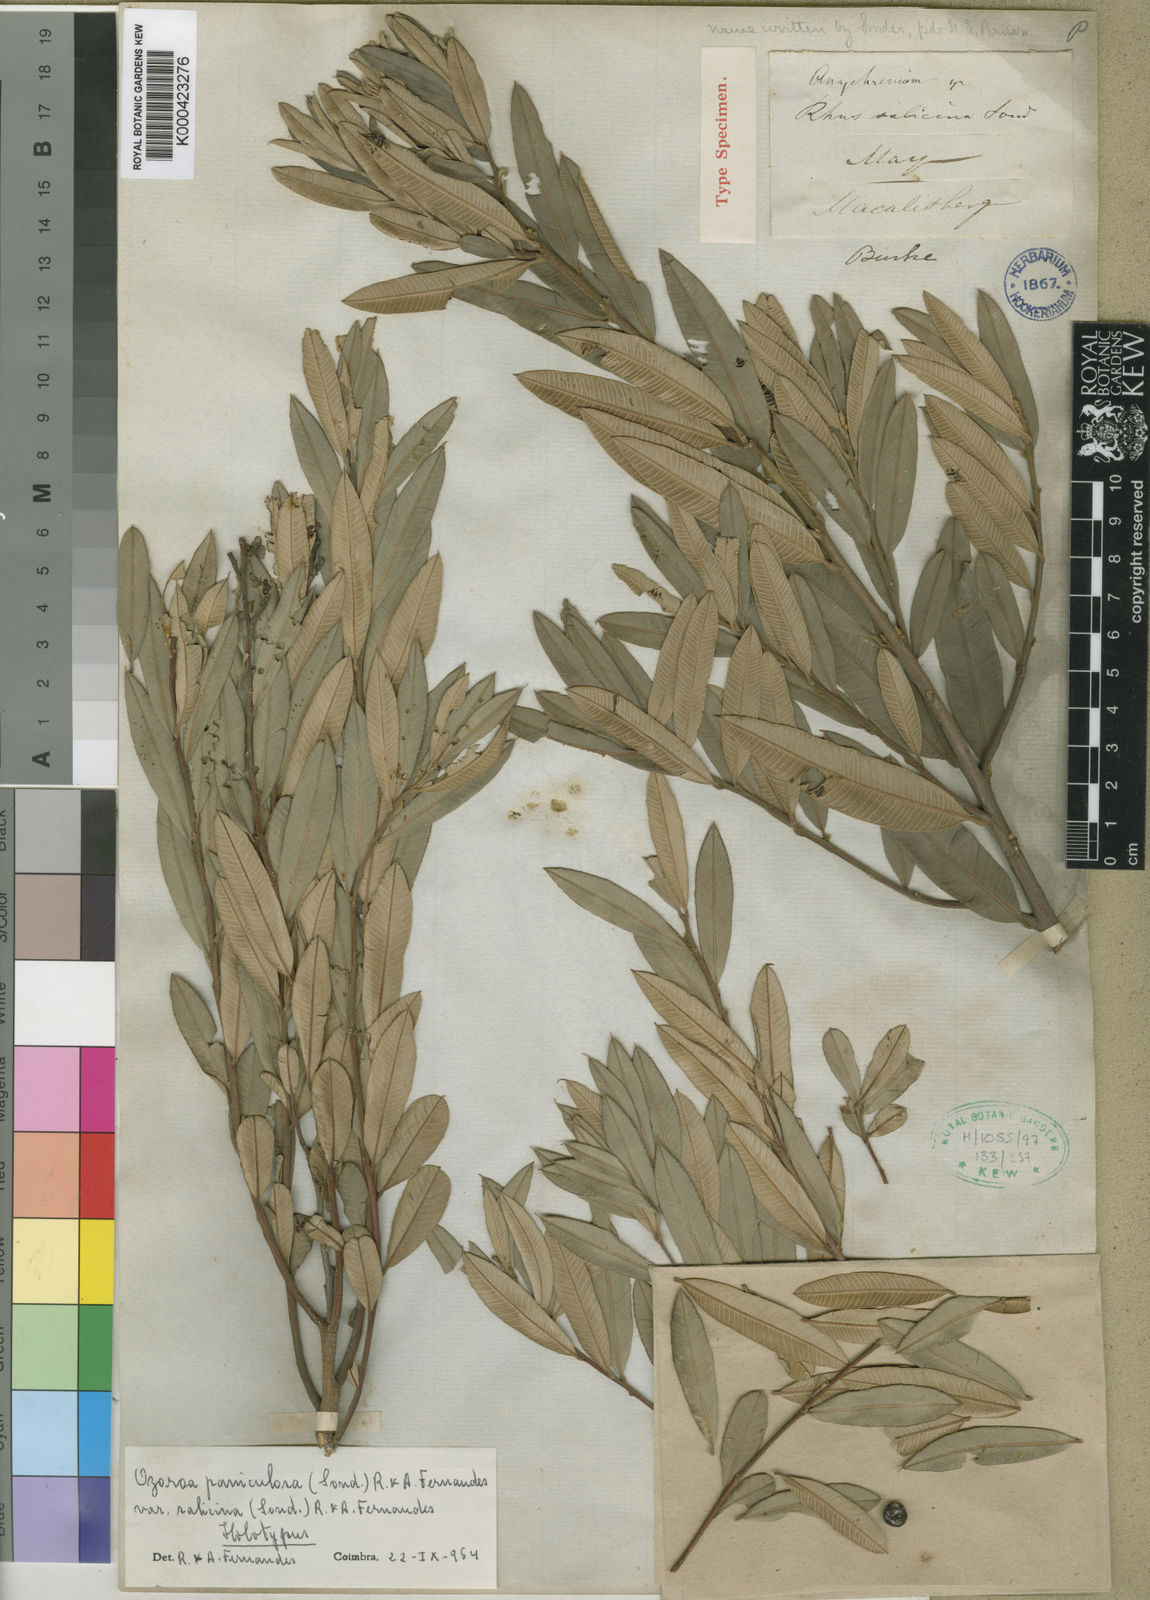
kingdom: Plantae
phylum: Tracheophyta
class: Magnoliopsida
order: Sapindales
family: Anacardiaceae
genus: Ozoroa
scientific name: Ozoroa paniculosa
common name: Bushveld ozoroa
